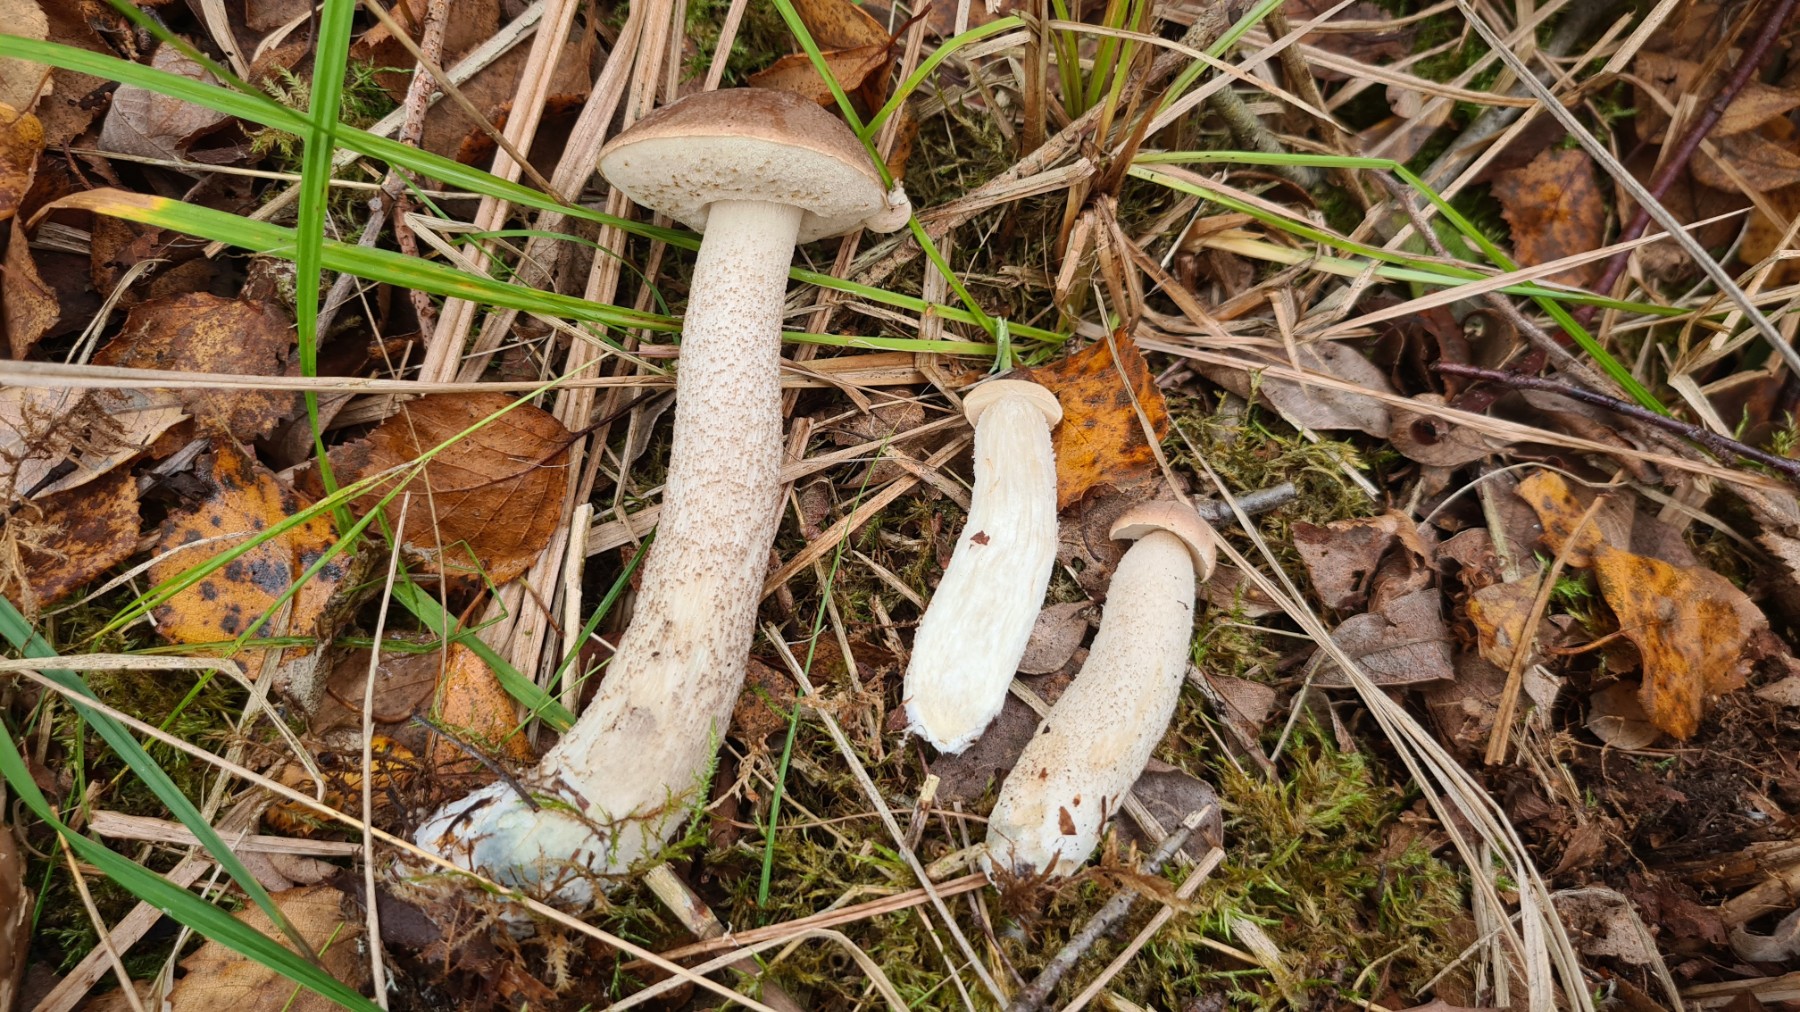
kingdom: Fungi
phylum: Basidiomycota
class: Agaricomycetes
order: Boletales
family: Boletaceae
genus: Leccinum
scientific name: Leccinum
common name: skælrørhat
